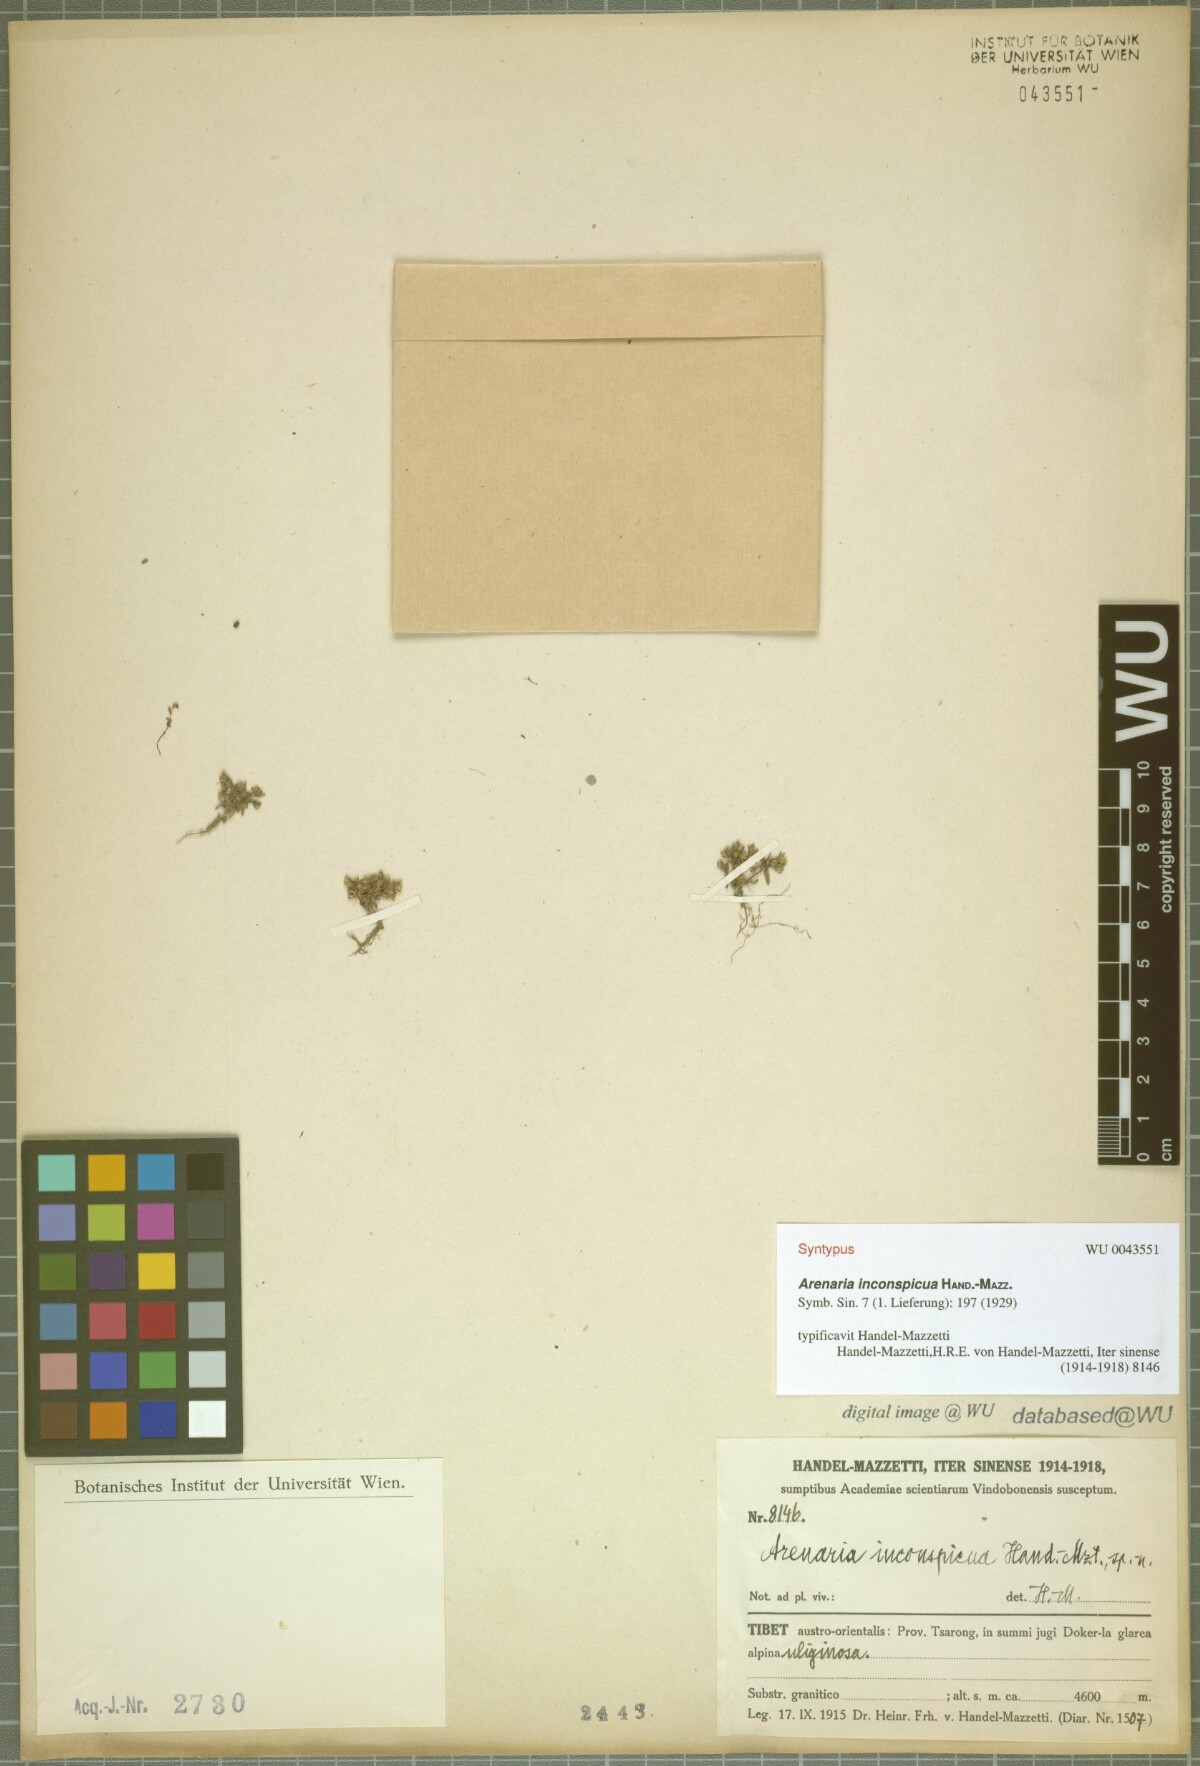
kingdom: Plantae
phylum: Tracheophyta
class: Magnoliopsida
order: Caryophyllales
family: Caryophyllaceae
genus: Odontostemma
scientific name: Odontostemma inconspicuum
